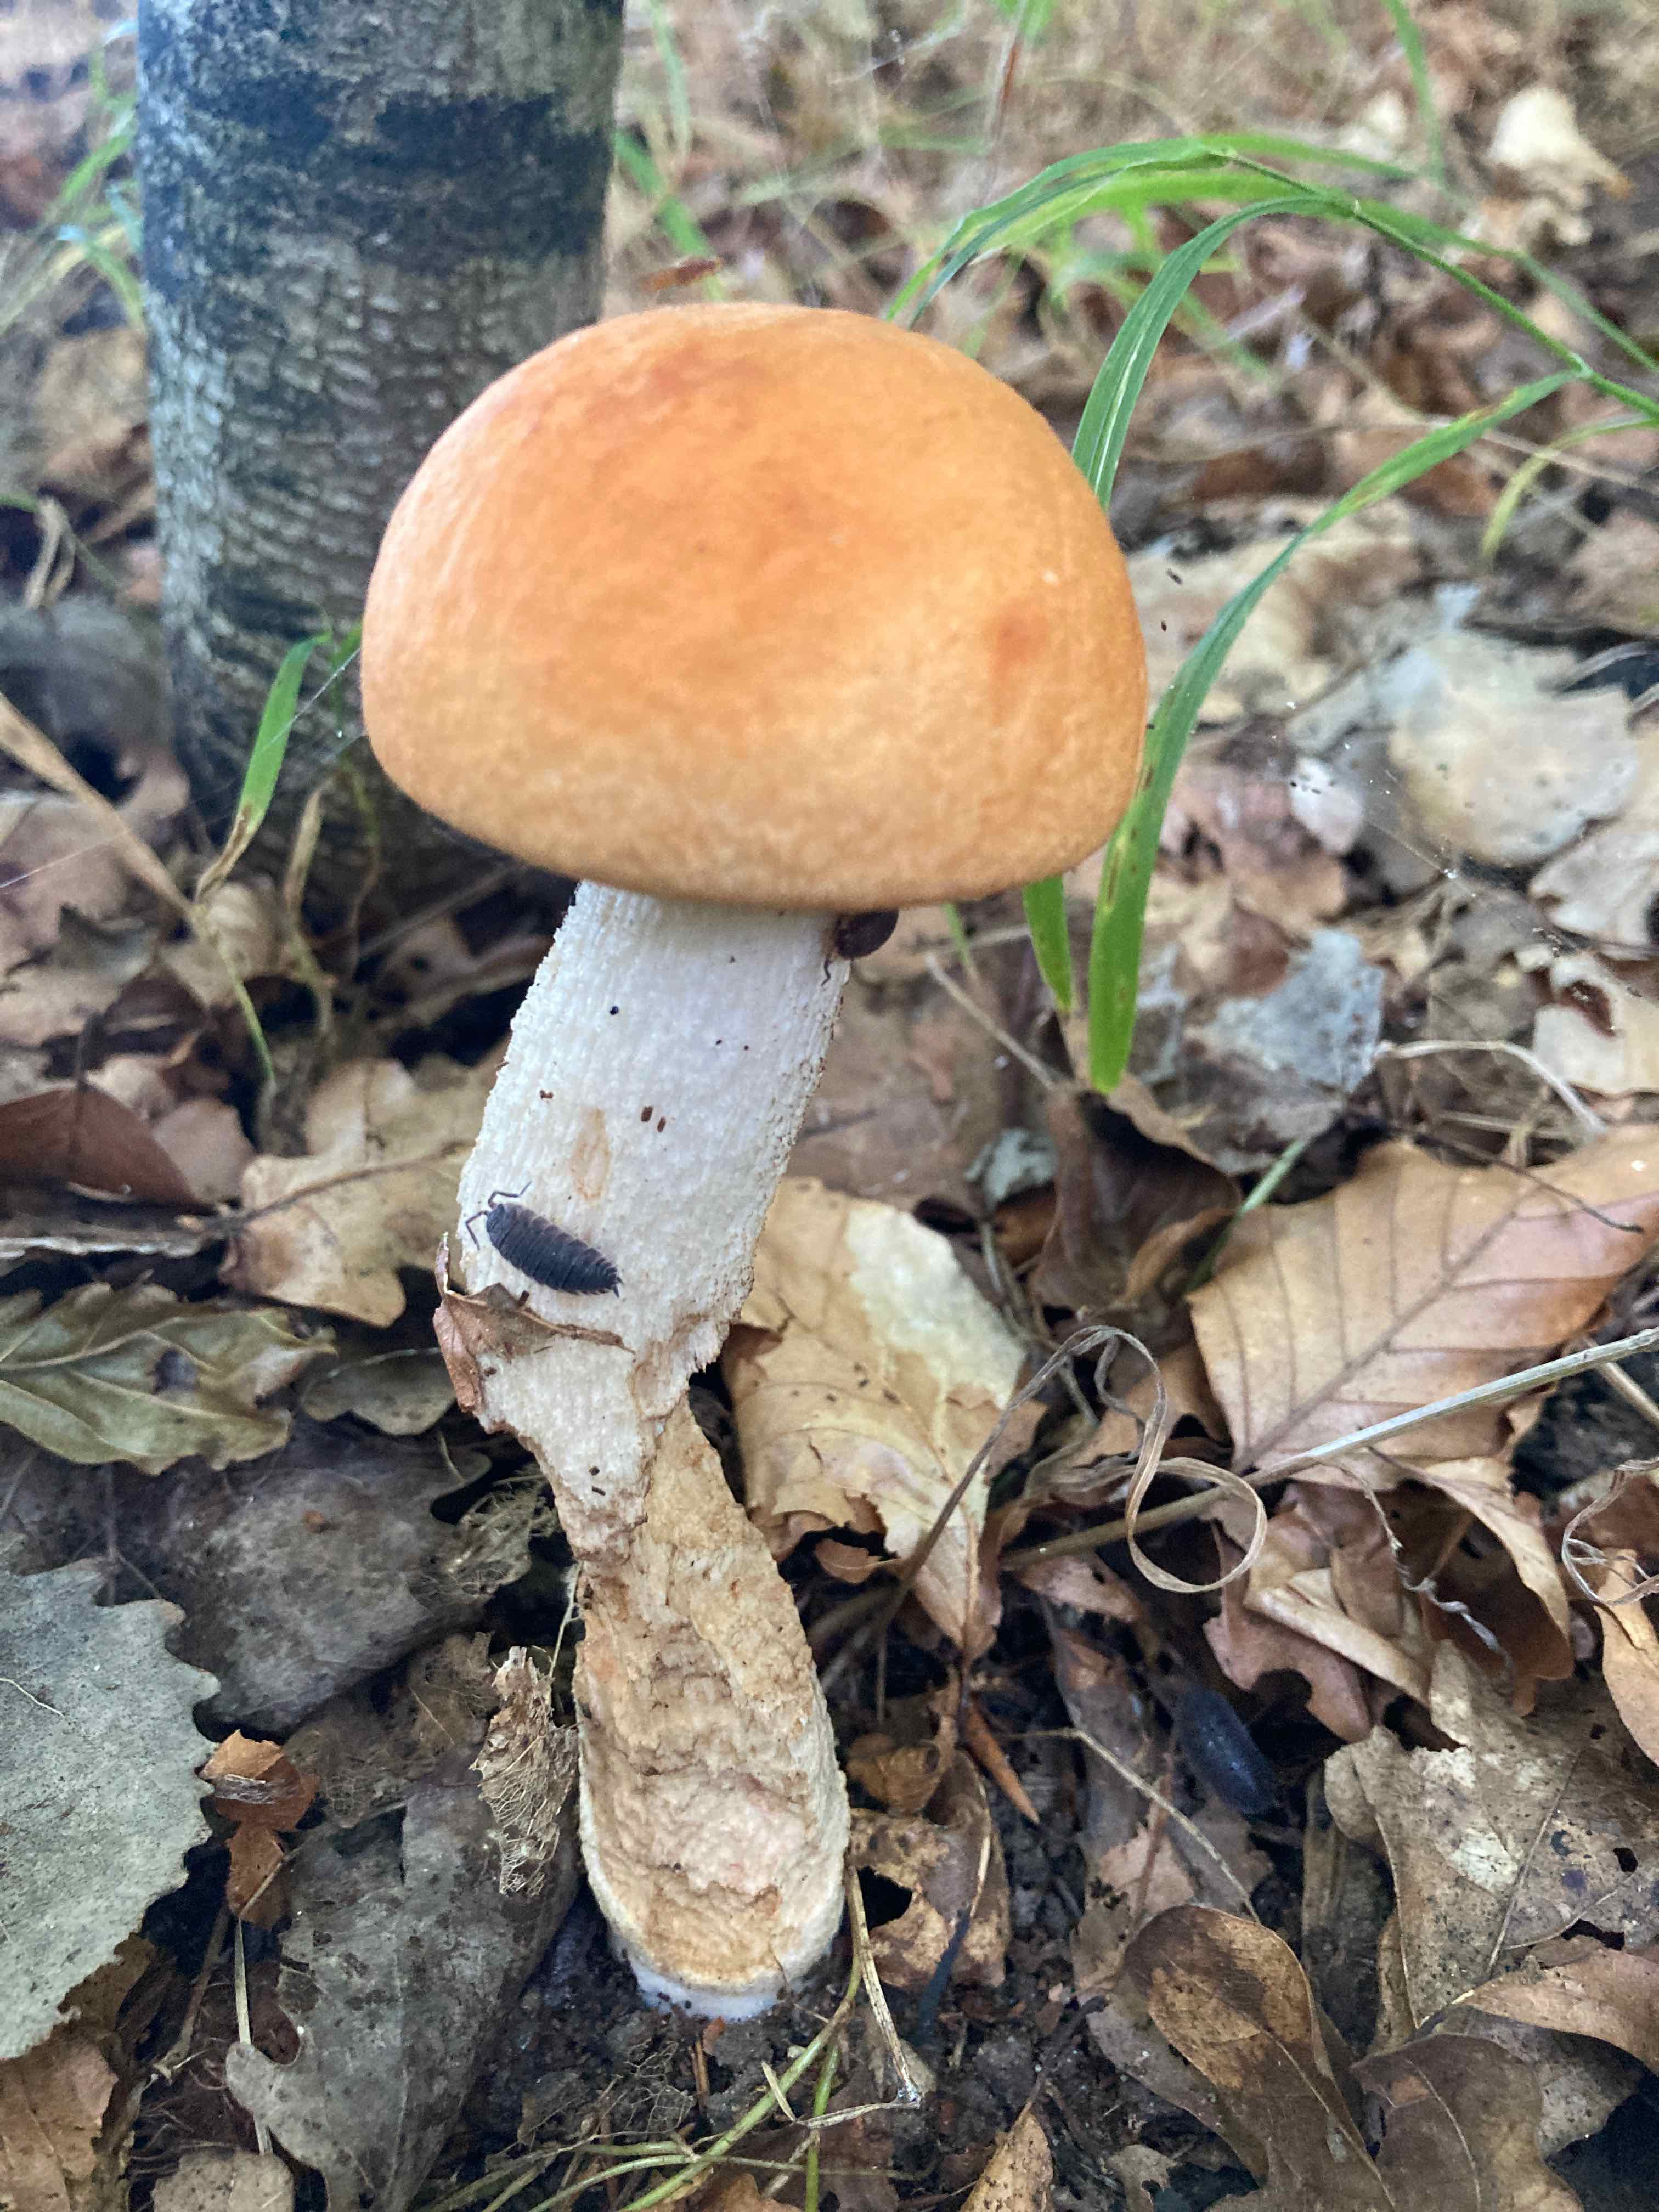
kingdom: Fungi
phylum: Basidiomycota
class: Agaricomycetes
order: Boletales
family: Boletaceae
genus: Leccinum
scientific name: Leccinum albostipitatum
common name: aspe-skælrørhat
